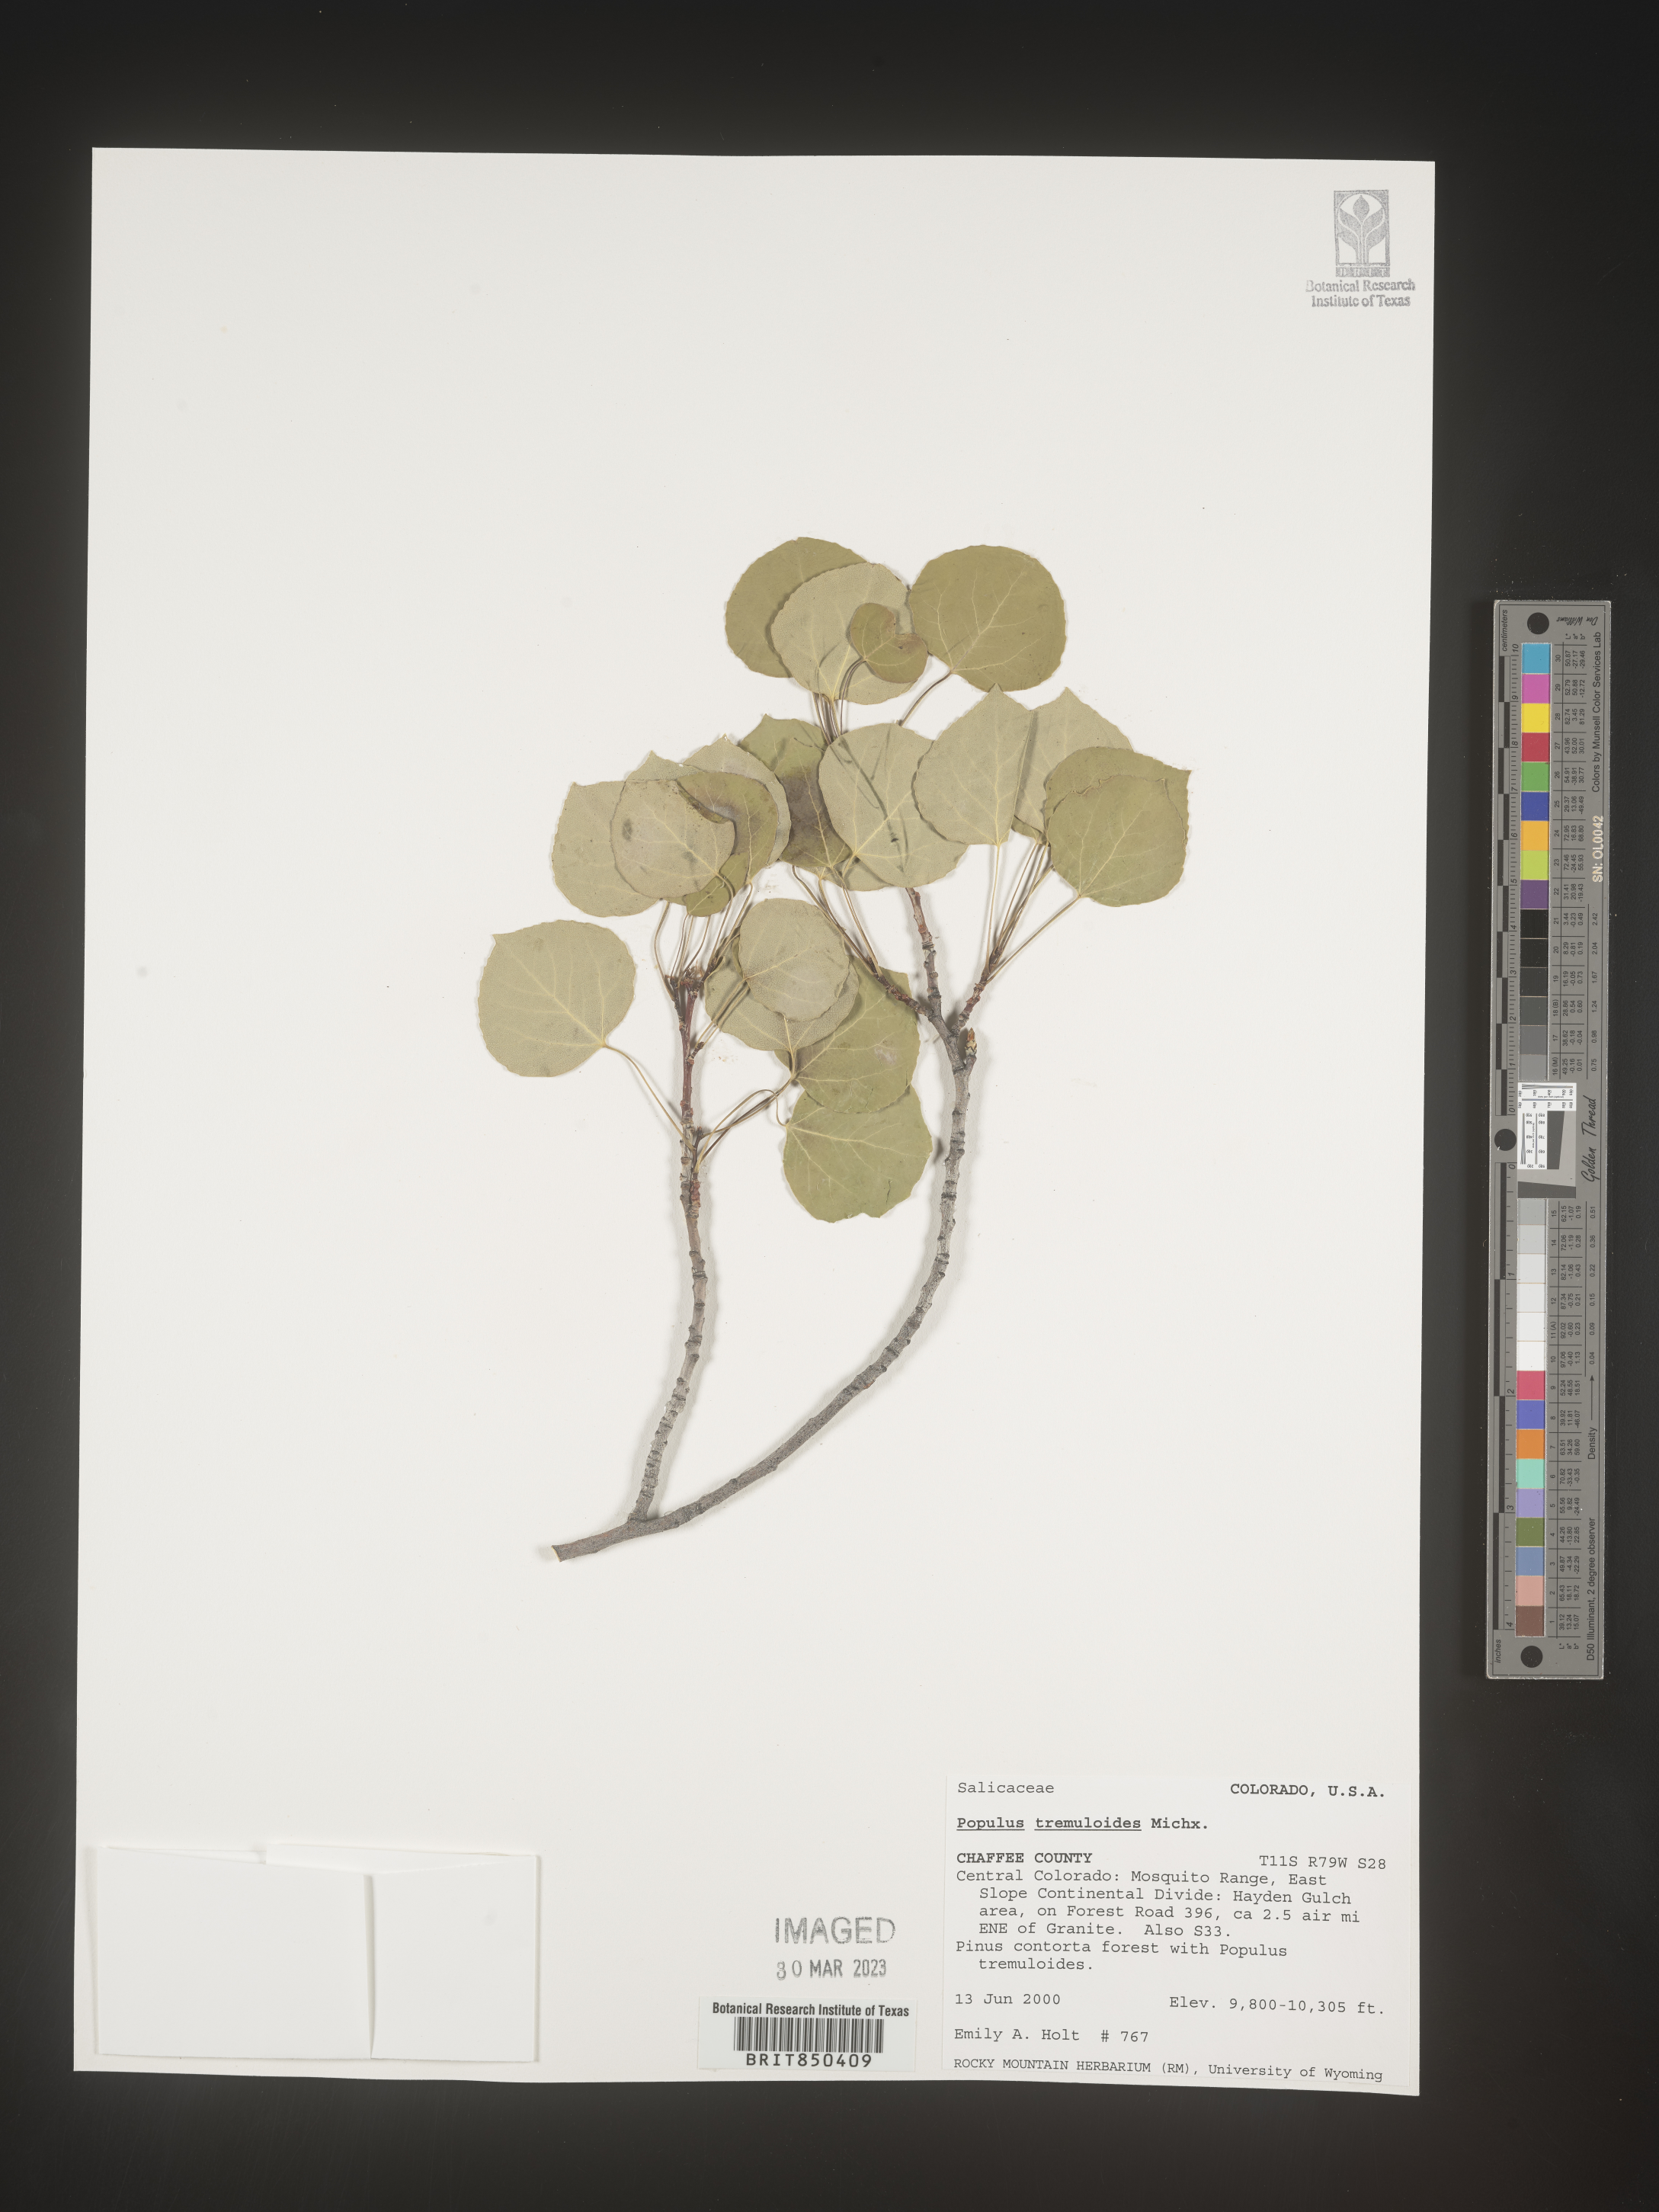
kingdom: Plantae
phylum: Tracheophyta
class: Magnoliopsida
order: Malpighiales
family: Salicaceae
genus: Populus
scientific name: Populus tremuloides
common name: Quaking aspen
